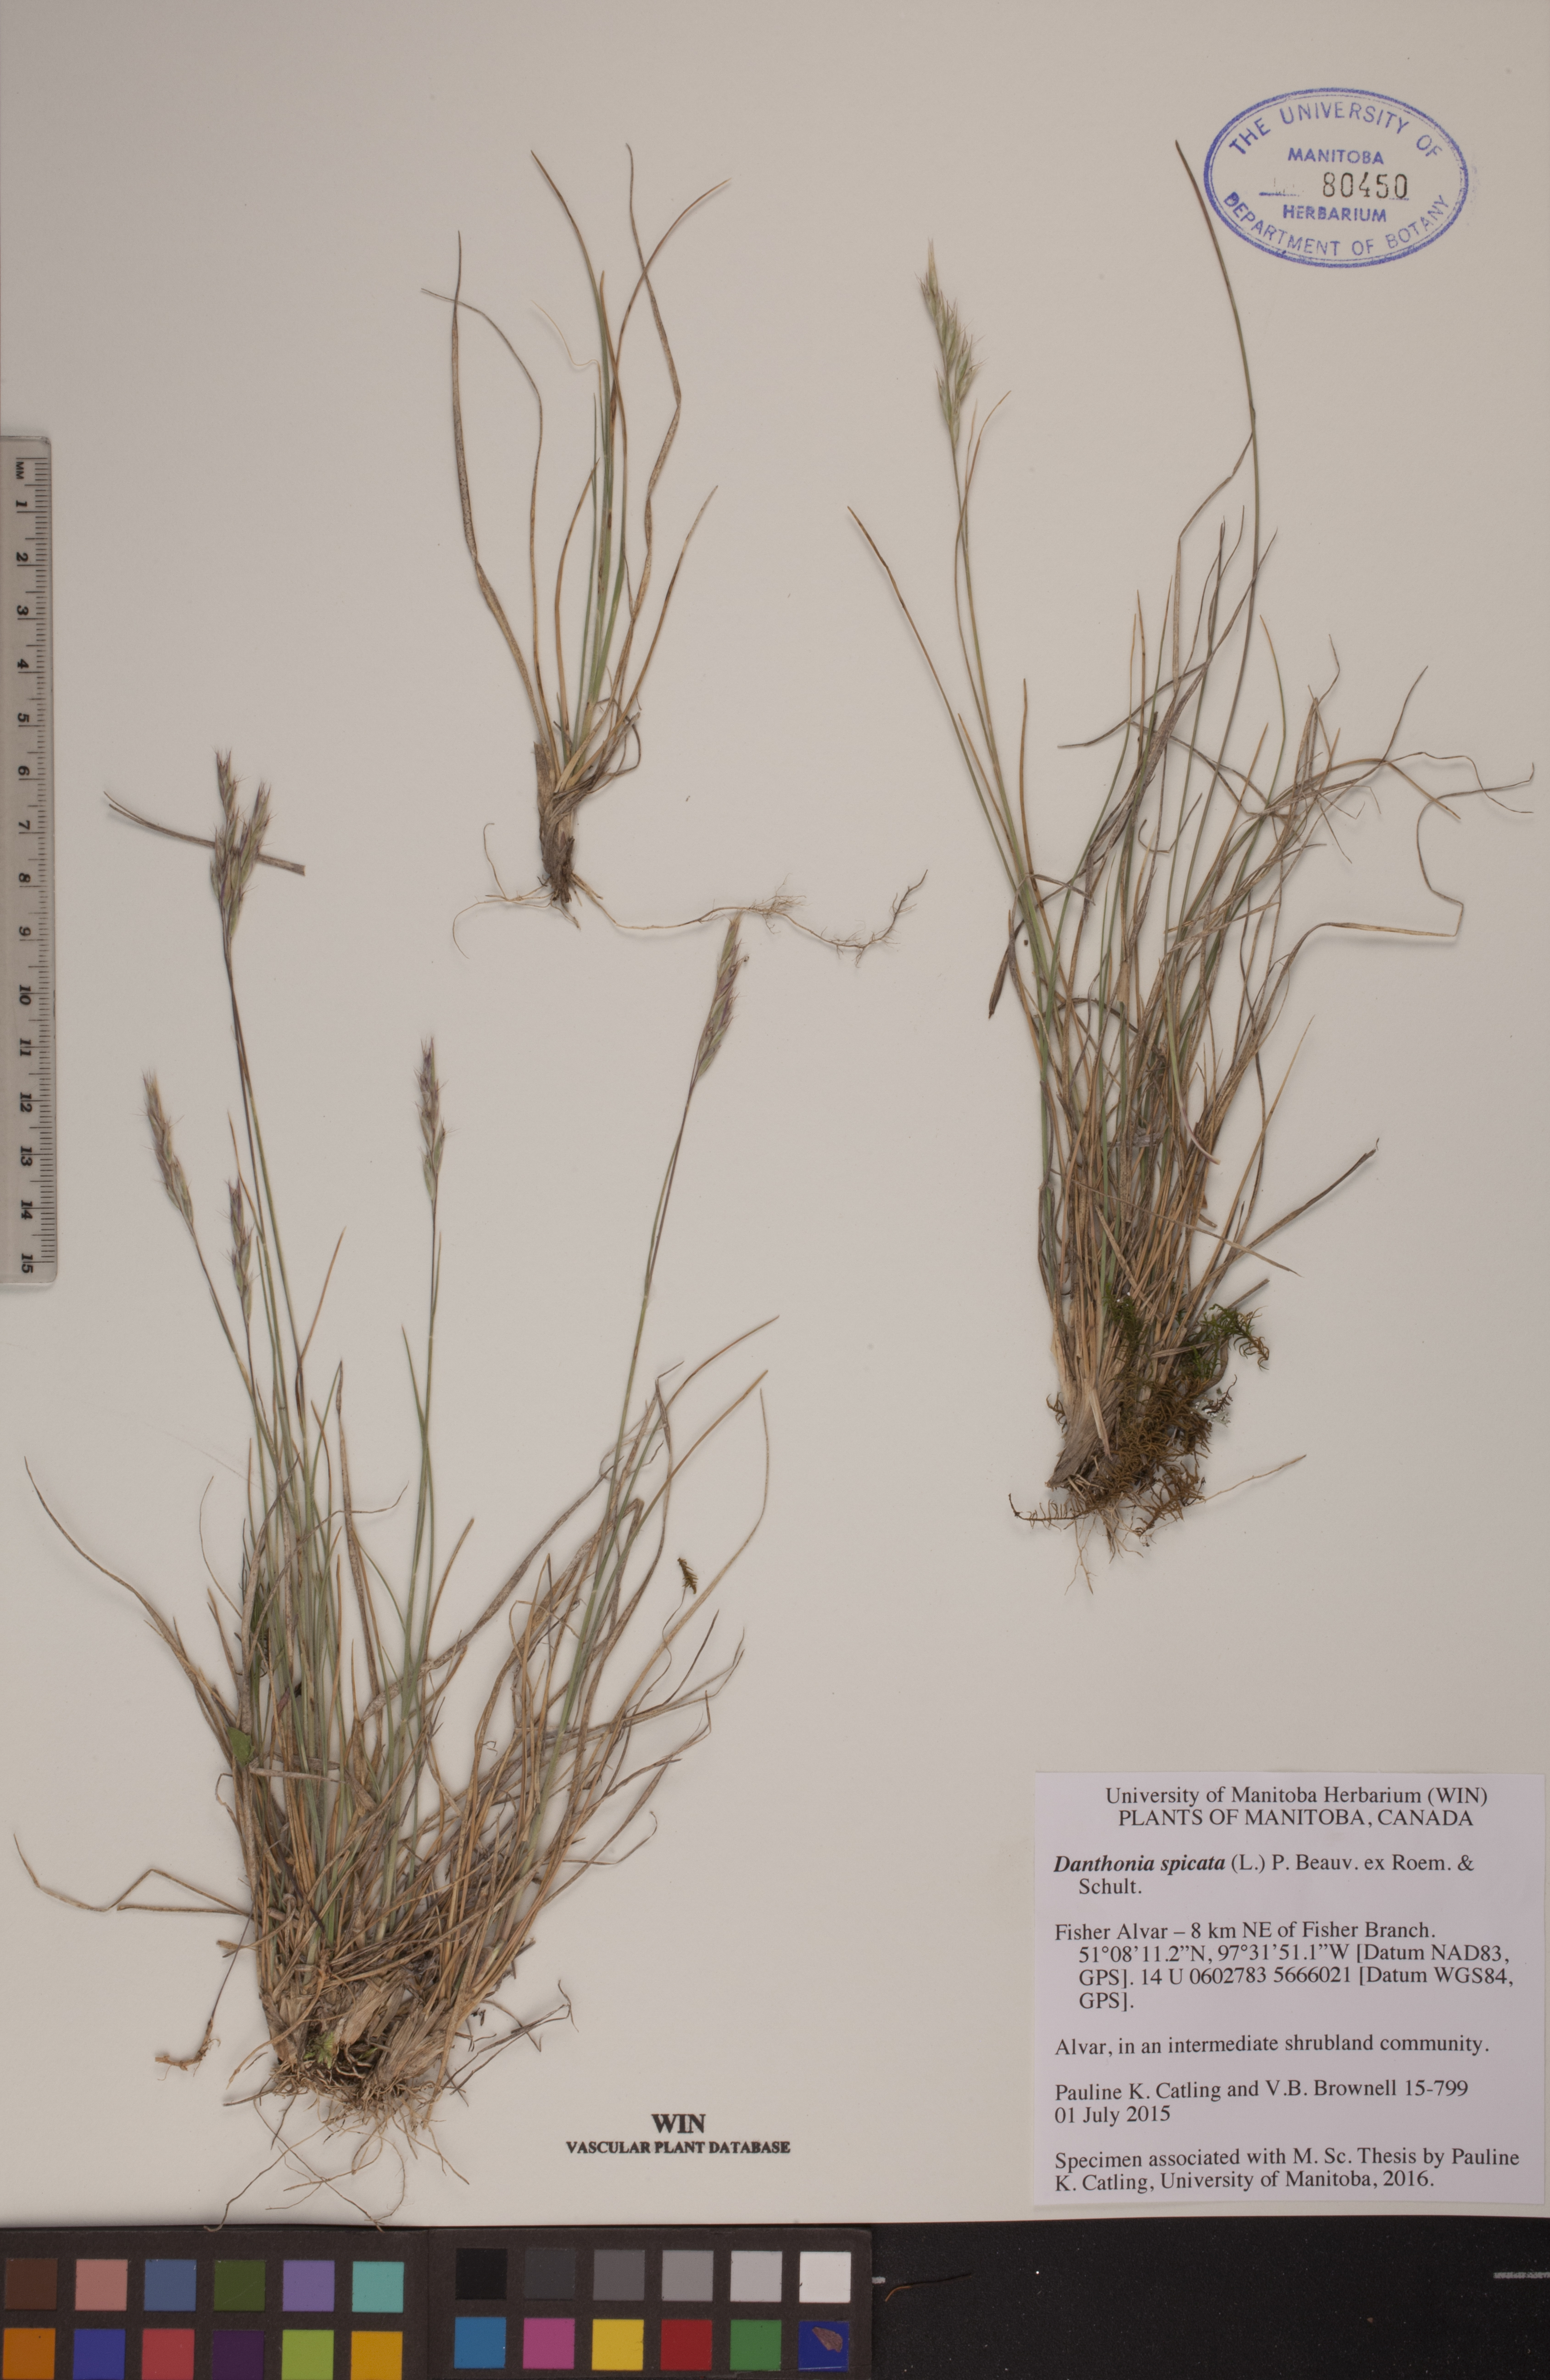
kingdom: Plantae
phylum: Tracheophyta
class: Liliopsida
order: Poales
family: Poaceae
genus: Danthonia
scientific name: Danthonia spicata
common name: Common wild oatgrass
